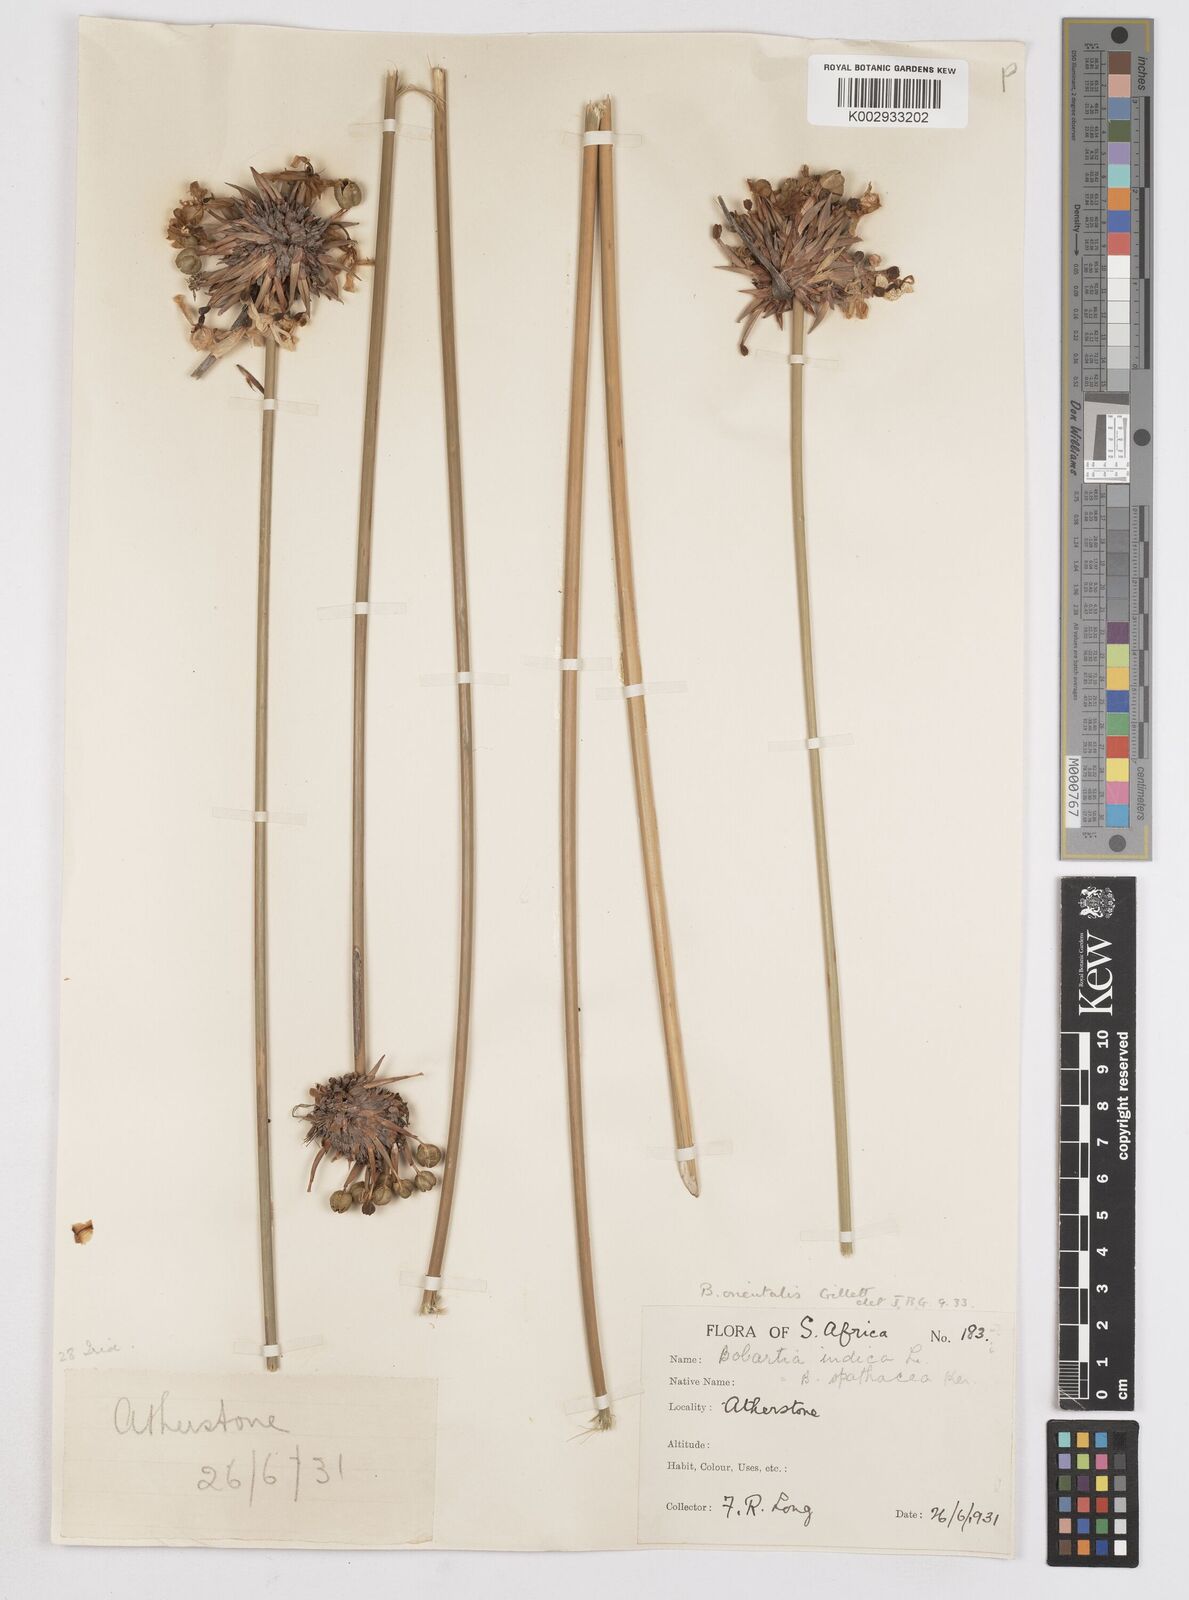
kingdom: Plantae
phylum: Tracheophyta
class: Liliopsida
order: Asparagales
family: Iridaceae
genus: Bobartia
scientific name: Bobartia orientalis
